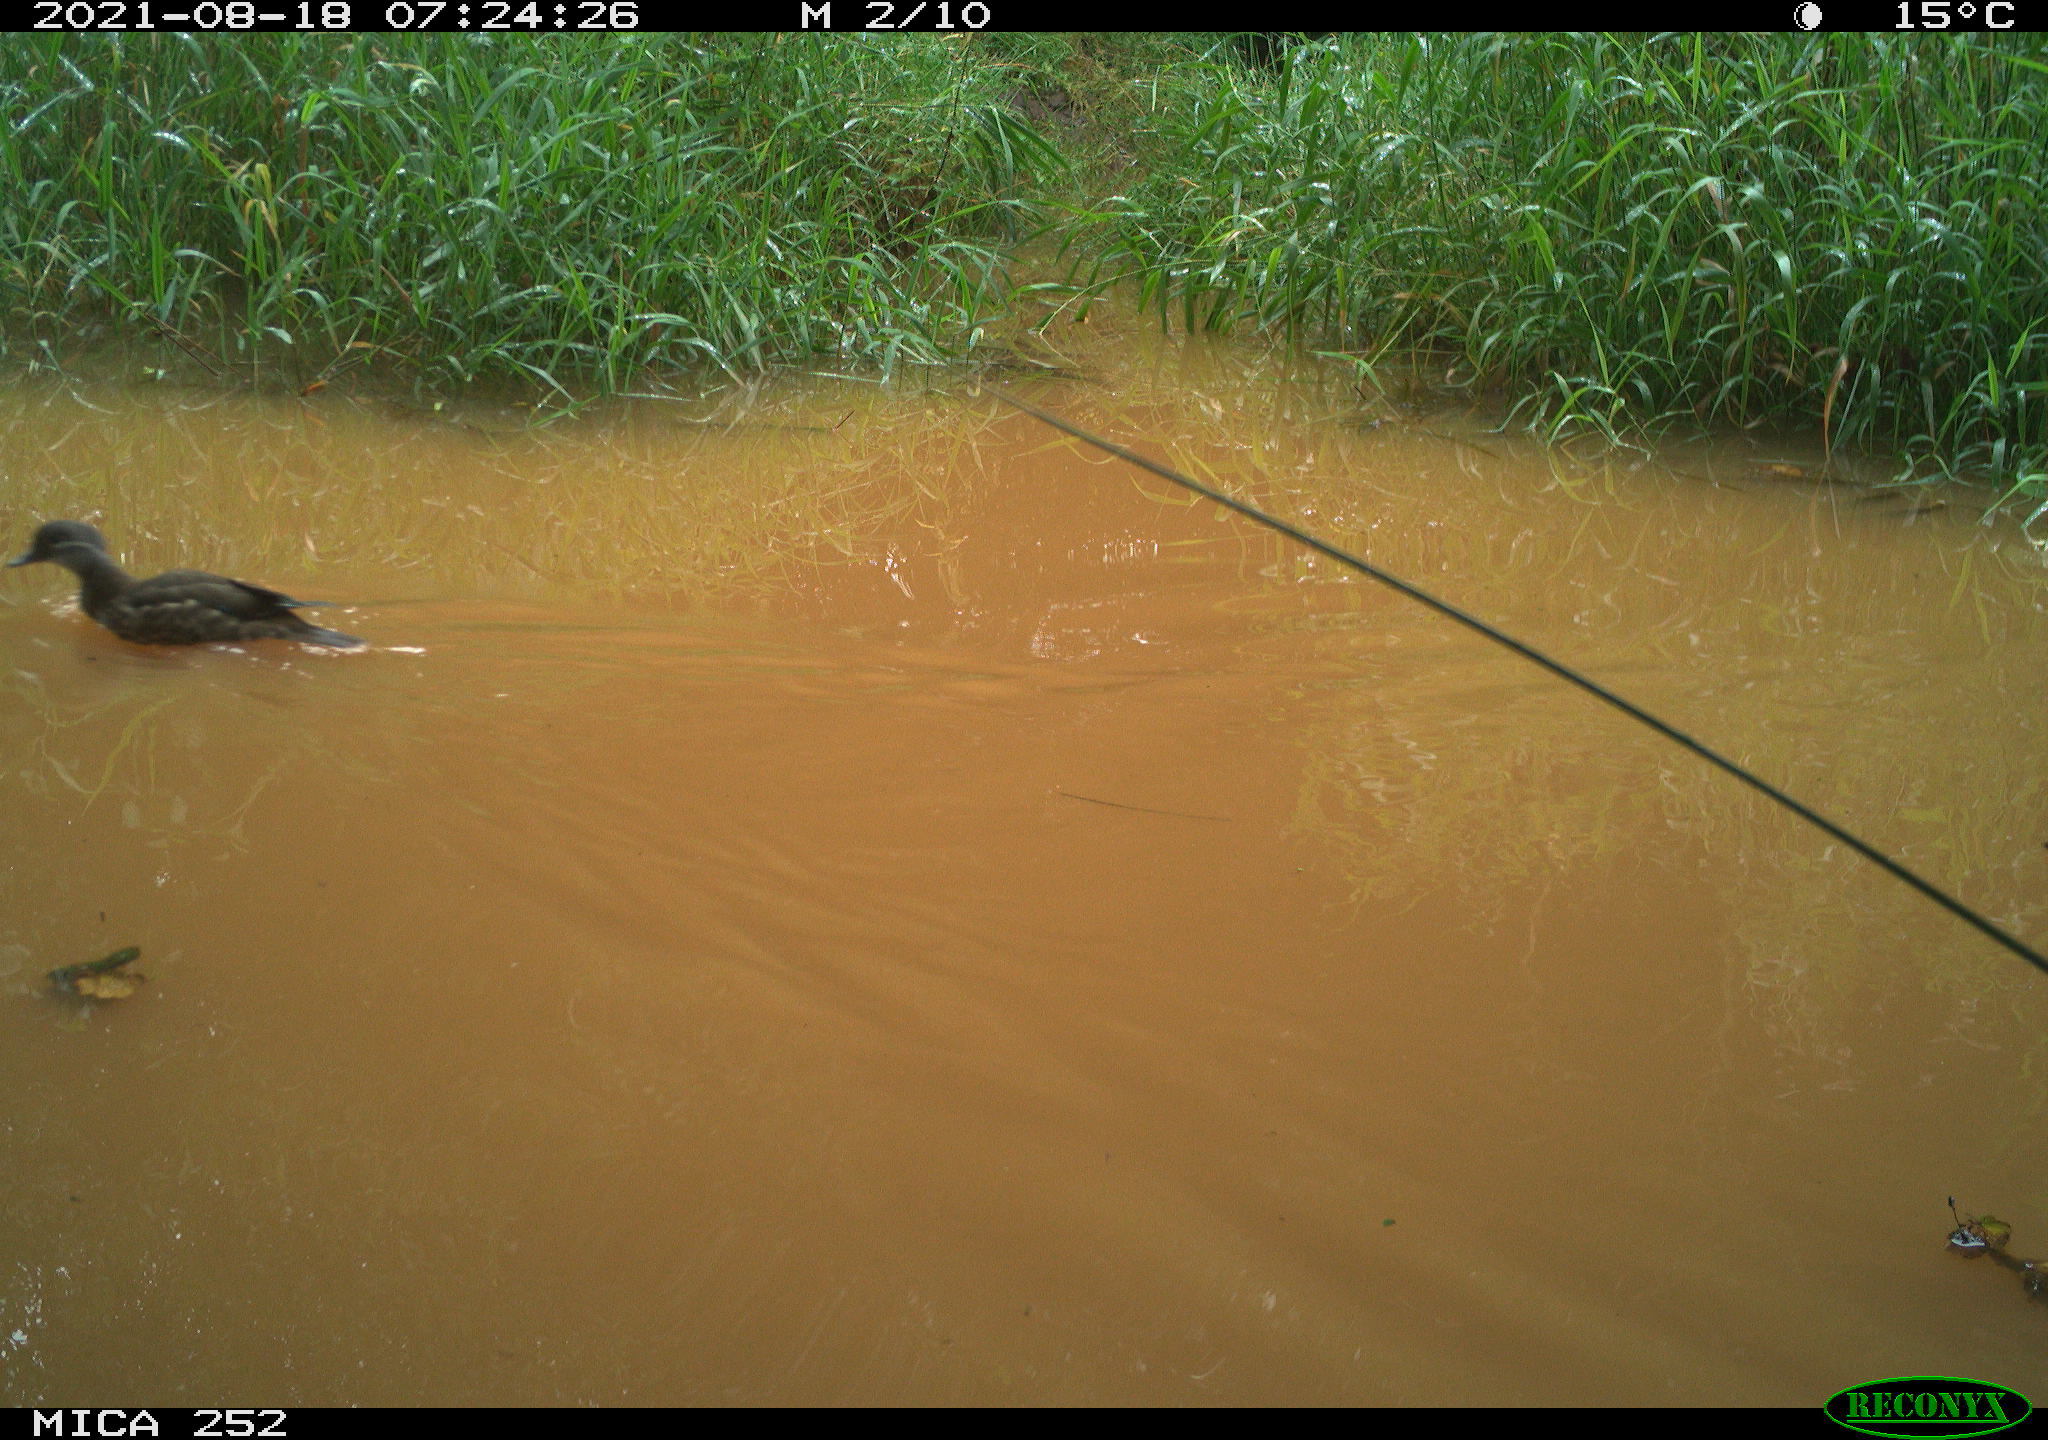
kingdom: Animalia
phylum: Chordata
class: Aves
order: Anseriformes
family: Anatidae
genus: Aix
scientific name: Aix galericulata
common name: Mandarin duck
